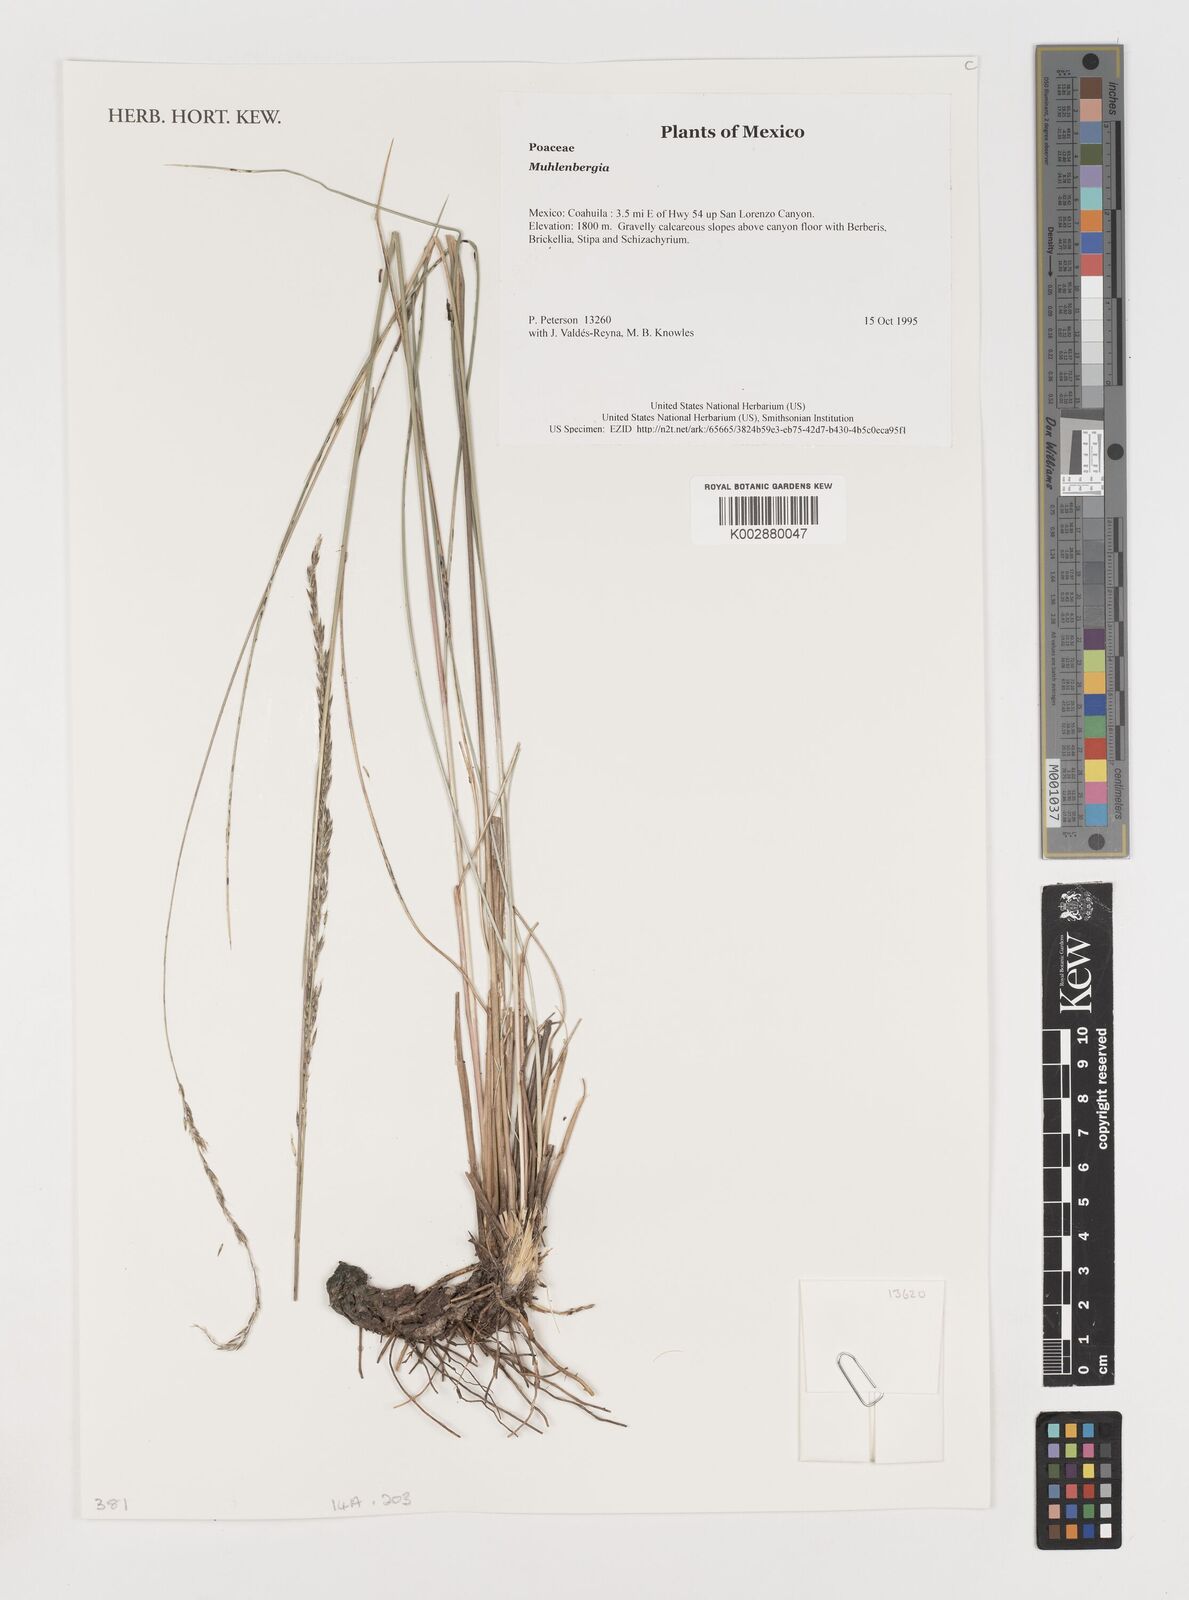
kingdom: Plantae
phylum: Tracheophyta
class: Liliopsida
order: Poales
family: Poaceae
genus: Muhlenbergia
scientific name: Muhlenbergia
